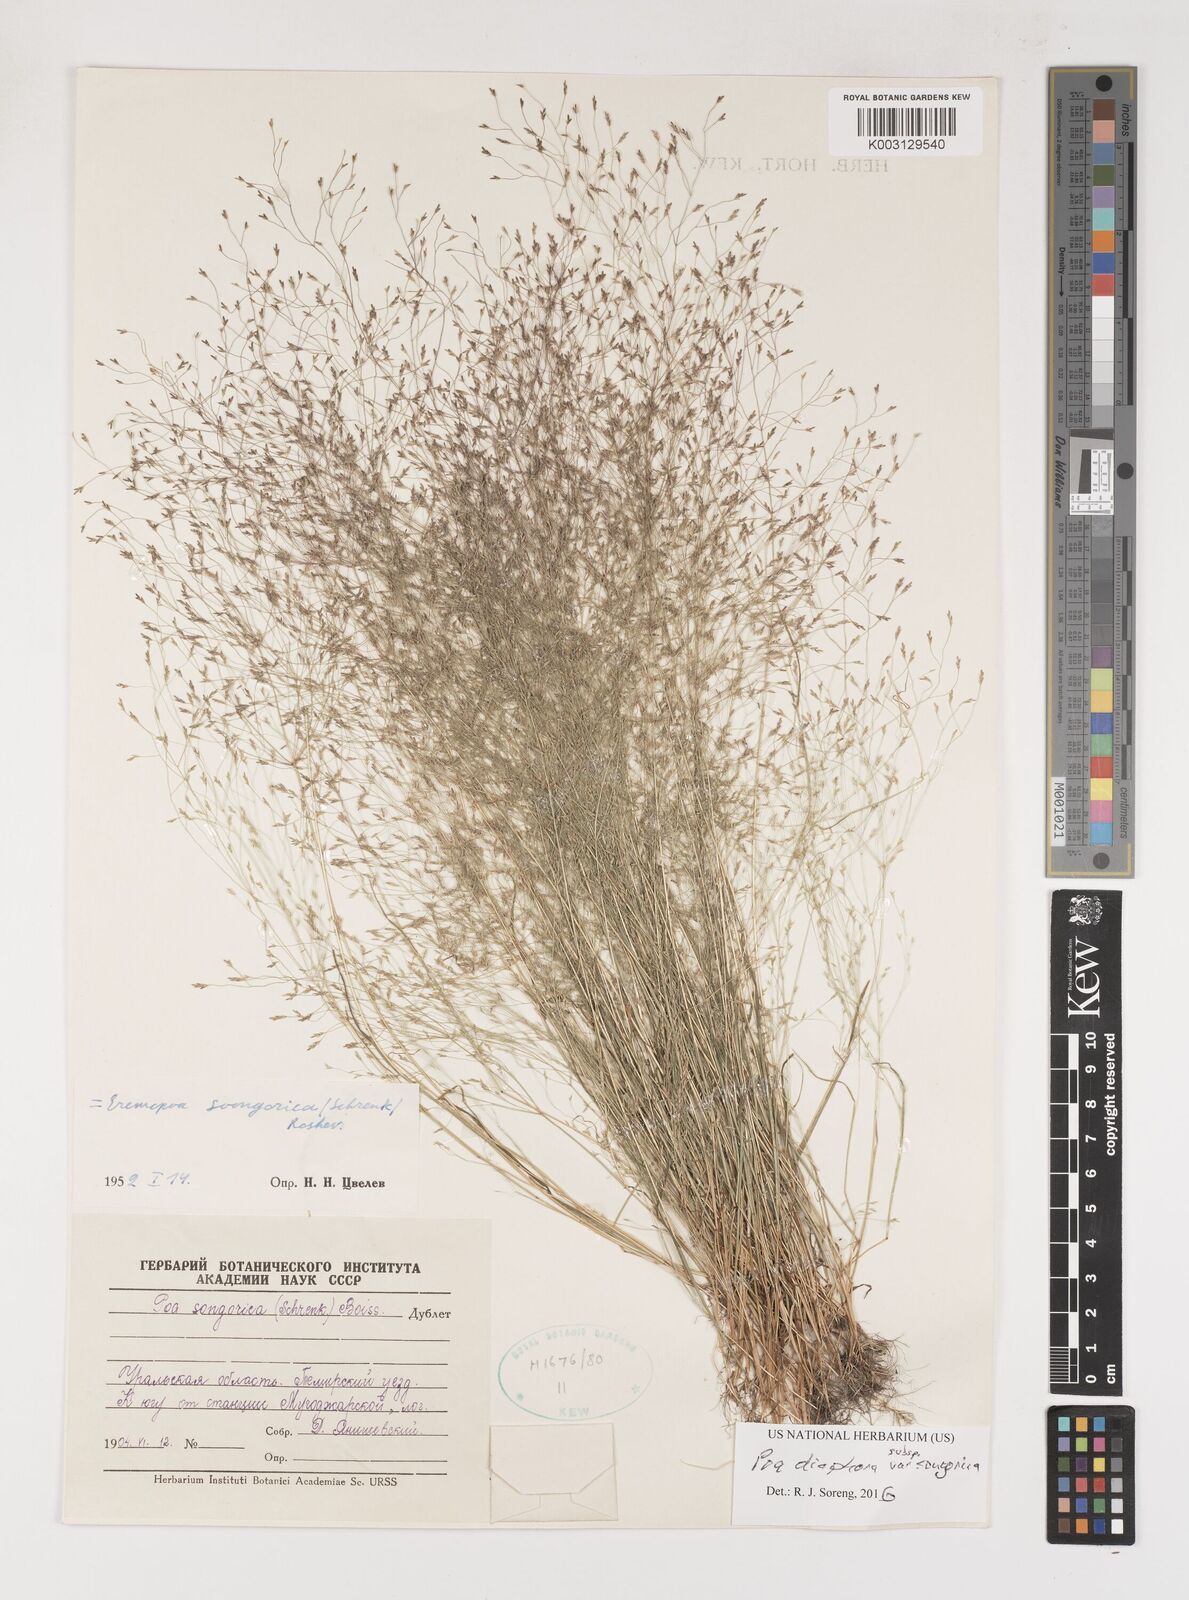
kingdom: Plantae
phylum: Tracheophyta
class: Liliopsida
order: Poales
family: Poaceae
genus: Poa
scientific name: Poa diaphora
